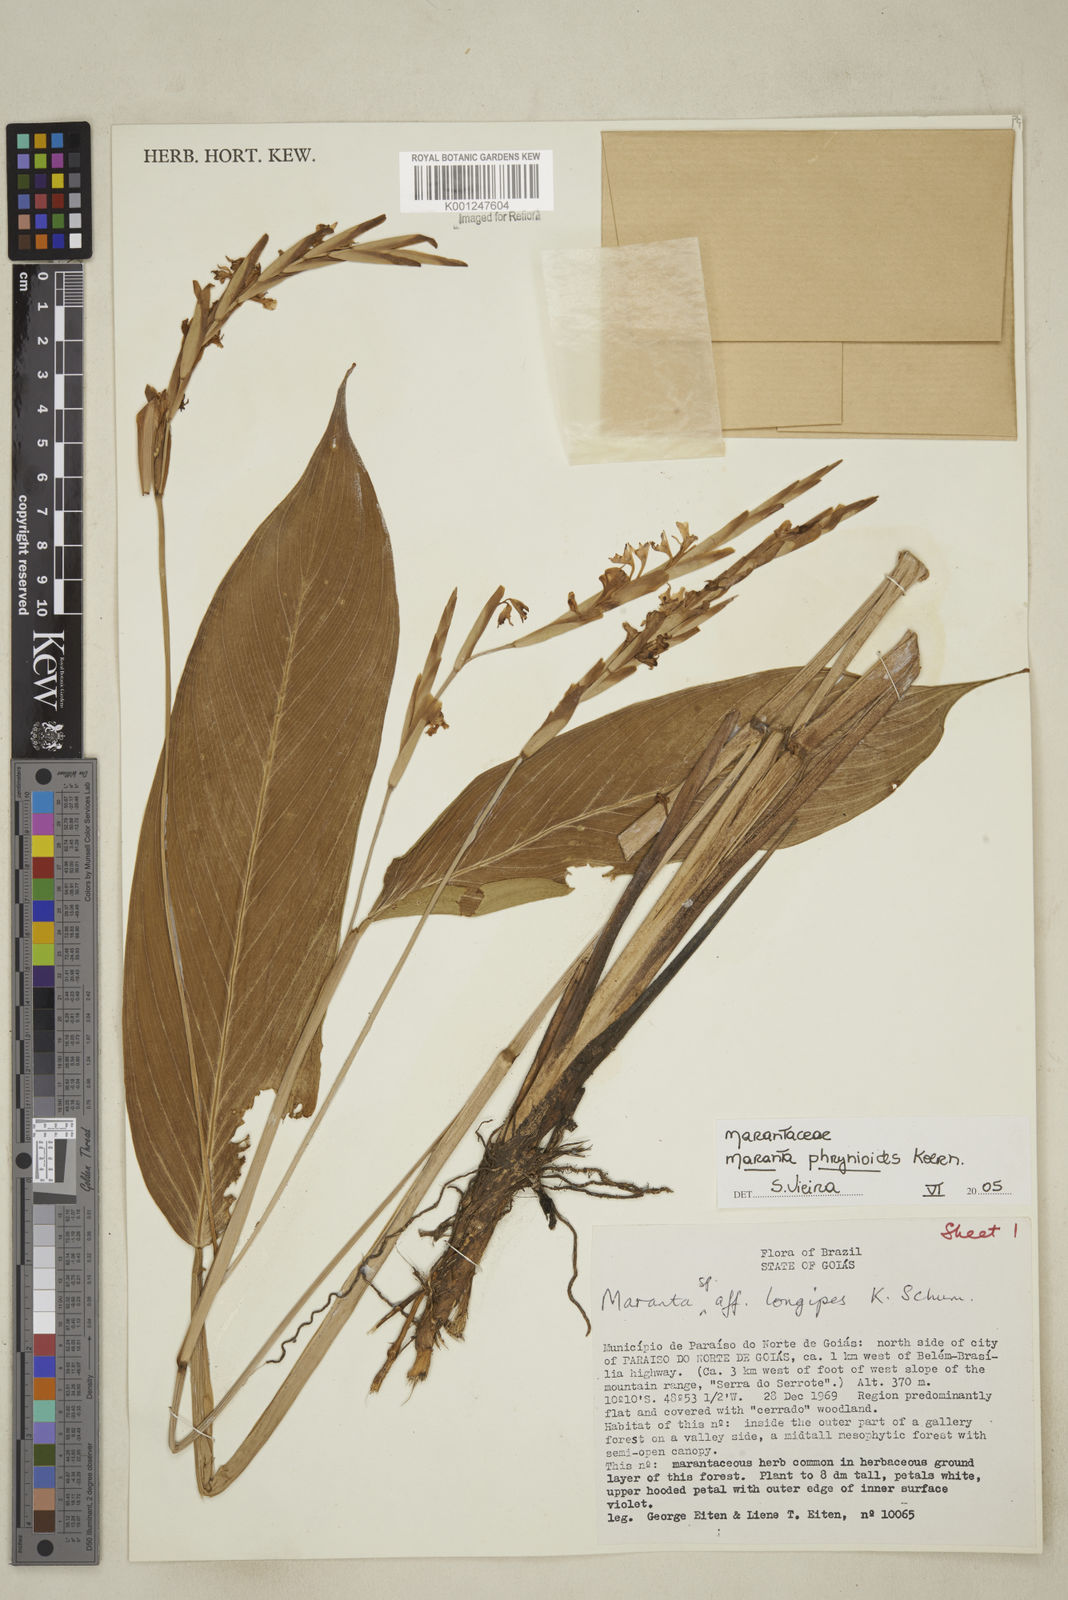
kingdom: Plantae
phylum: Tracheophyta
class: Liliopsida
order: Zingiberales
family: Marantaceae
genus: Maranta
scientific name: Maranta phrynioides
